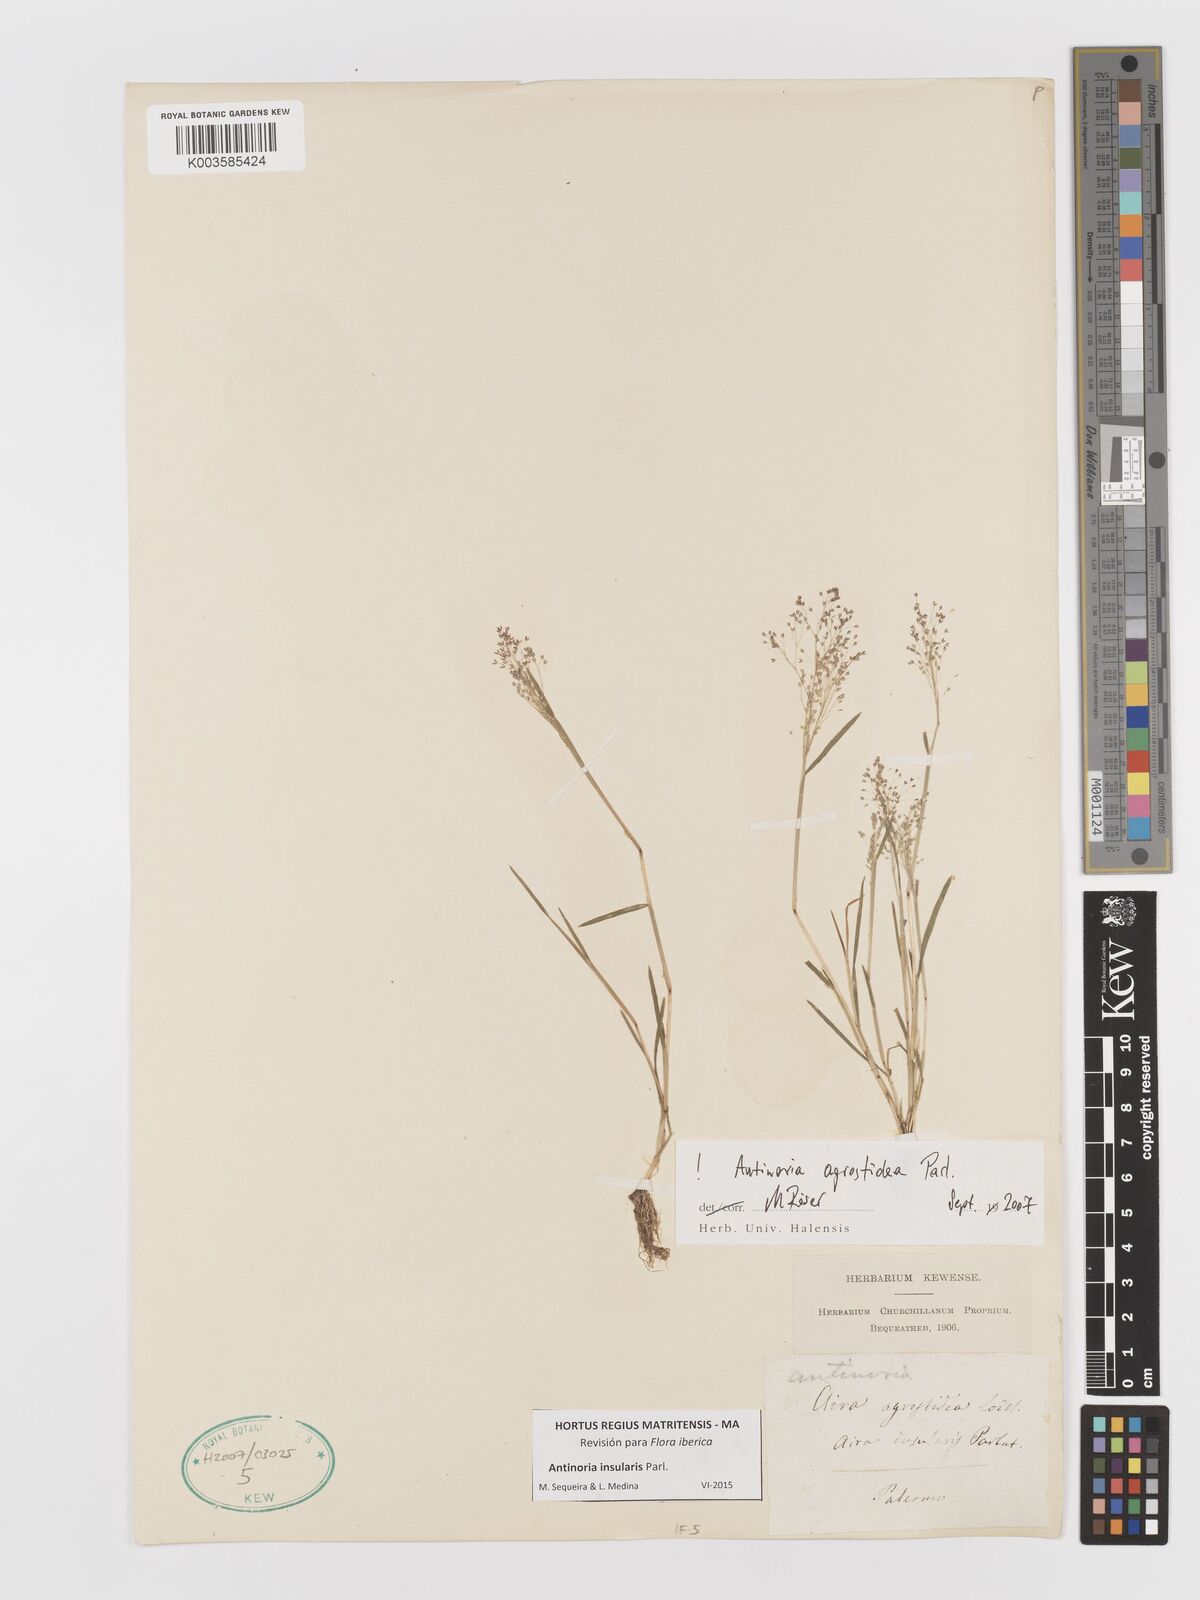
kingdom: Plantae
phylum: Tracheophyta
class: Liliopsida
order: Poales
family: Poaceae
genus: Antinoria
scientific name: Antinoria insularis
